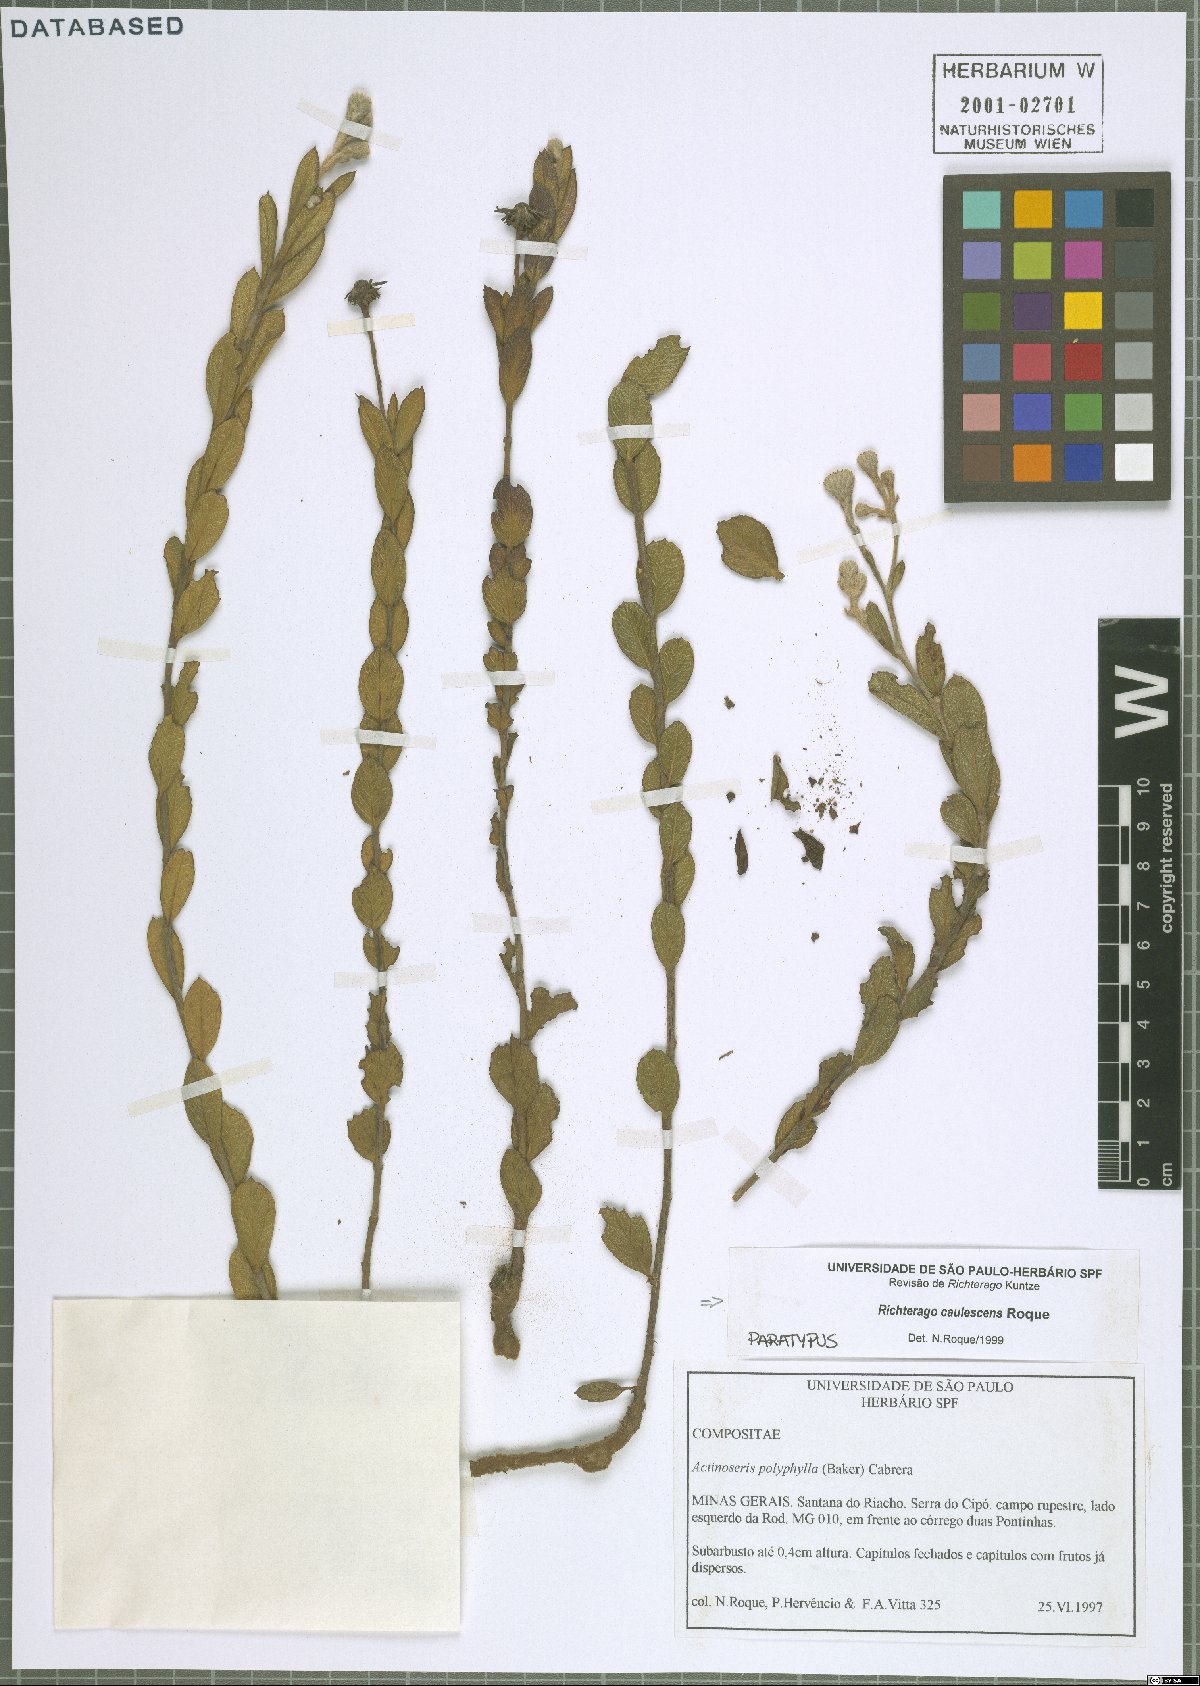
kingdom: Plantae
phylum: Tracheophyta
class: Magnoliopsida
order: Asterales
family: Asteraceae
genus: Richterago
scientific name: Richterago caulescens
